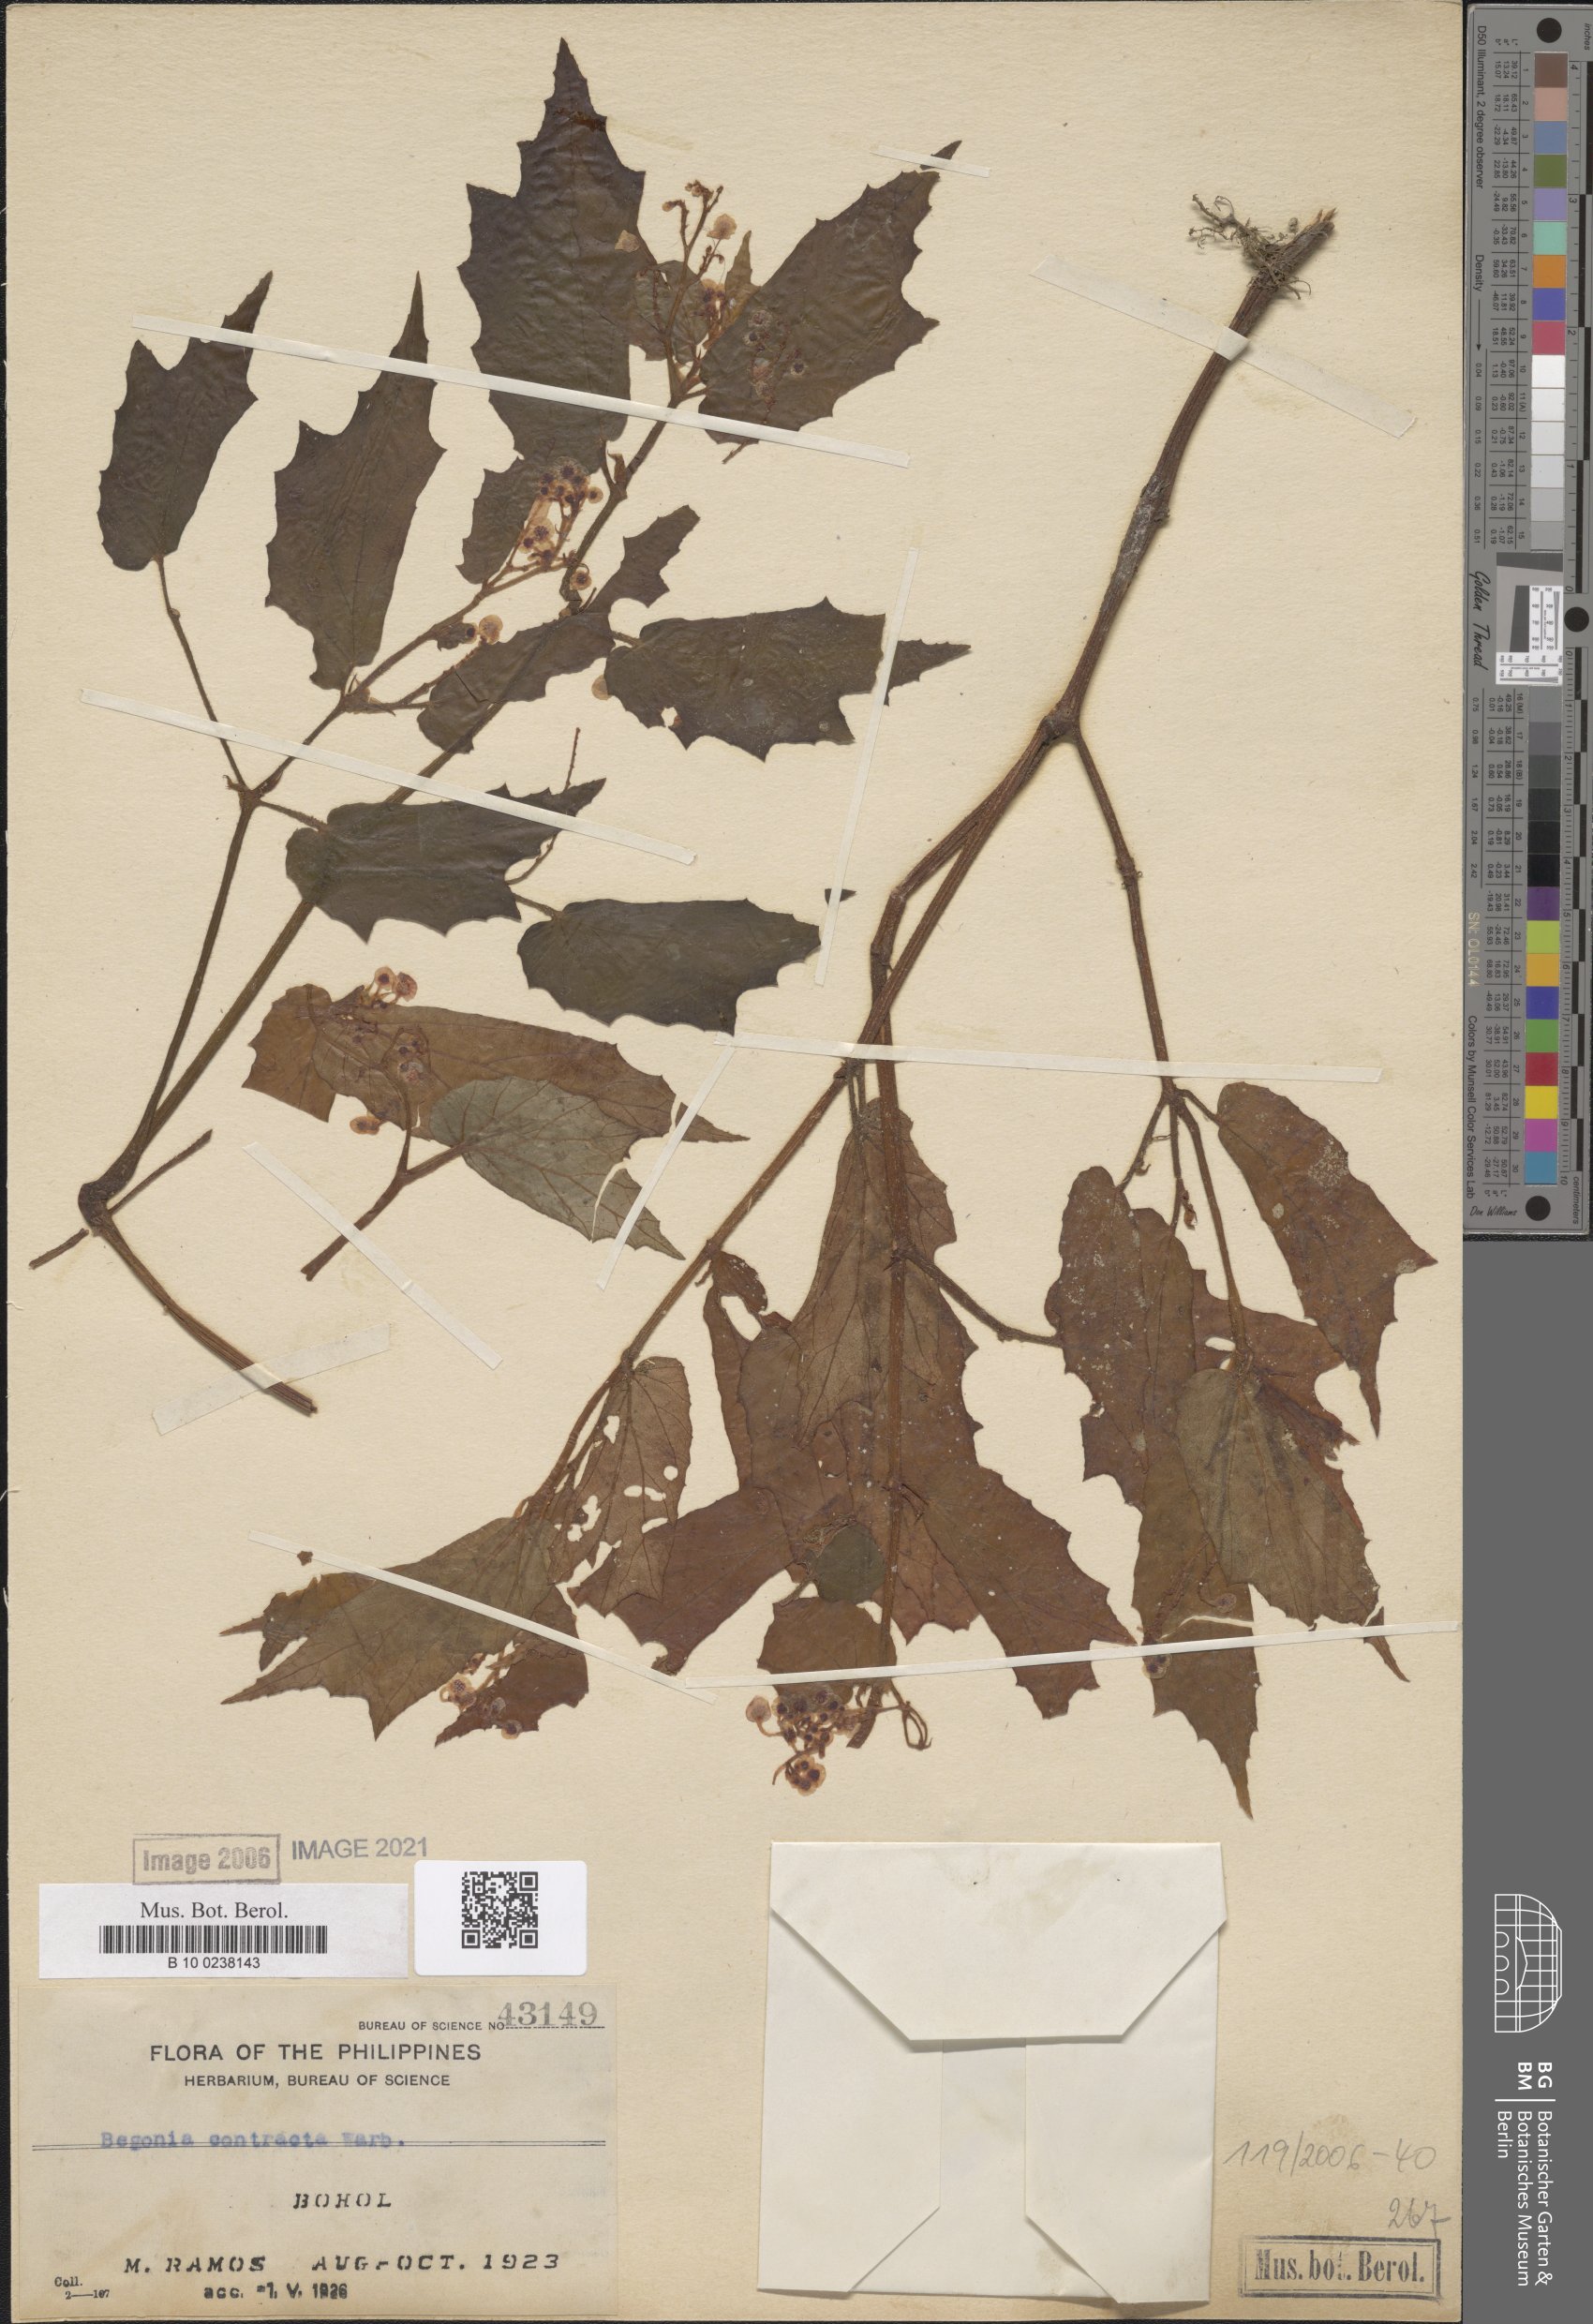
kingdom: Plantae
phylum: Tracheophyta
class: Magnoliopsida
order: Cucurbitales
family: Begoniaceae
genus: Begonia
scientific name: Begonia contracta
